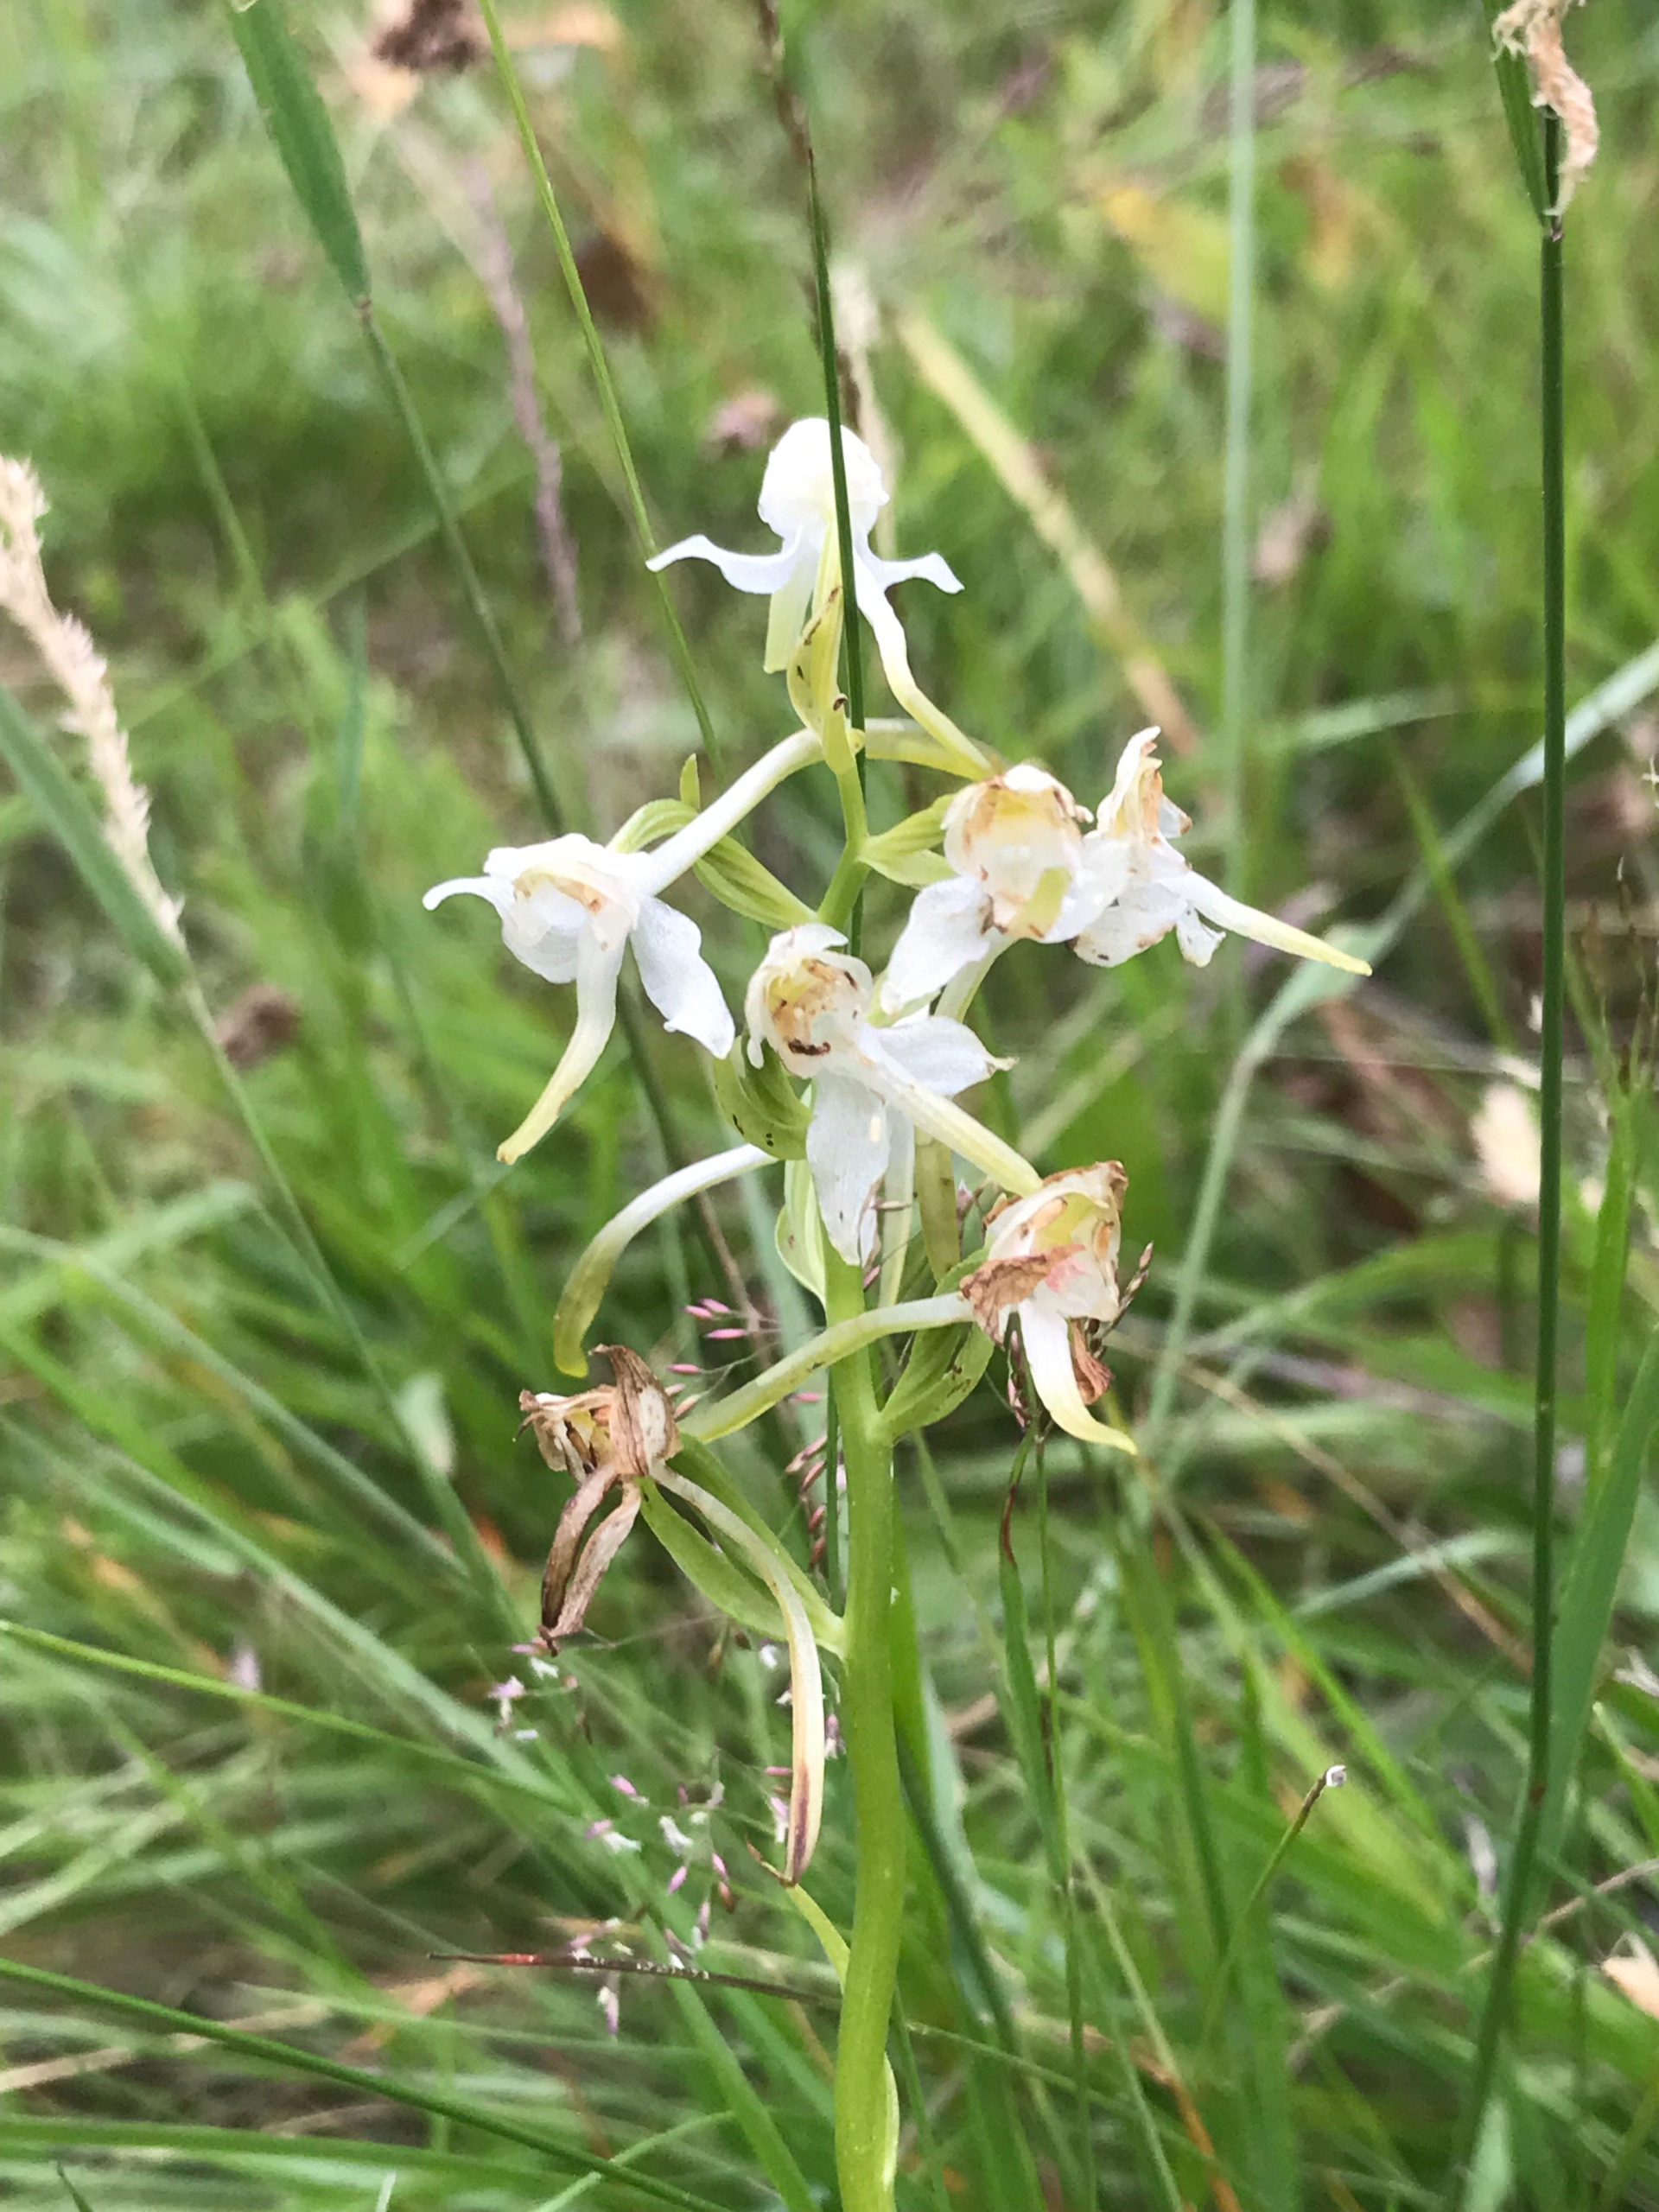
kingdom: Plantae
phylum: Tracheophyta
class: Liliopsida
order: Asparagales
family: Orchidaceae
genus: Platanthera
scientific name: Platanthera chlorantha
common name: Skov-gøgelilje
